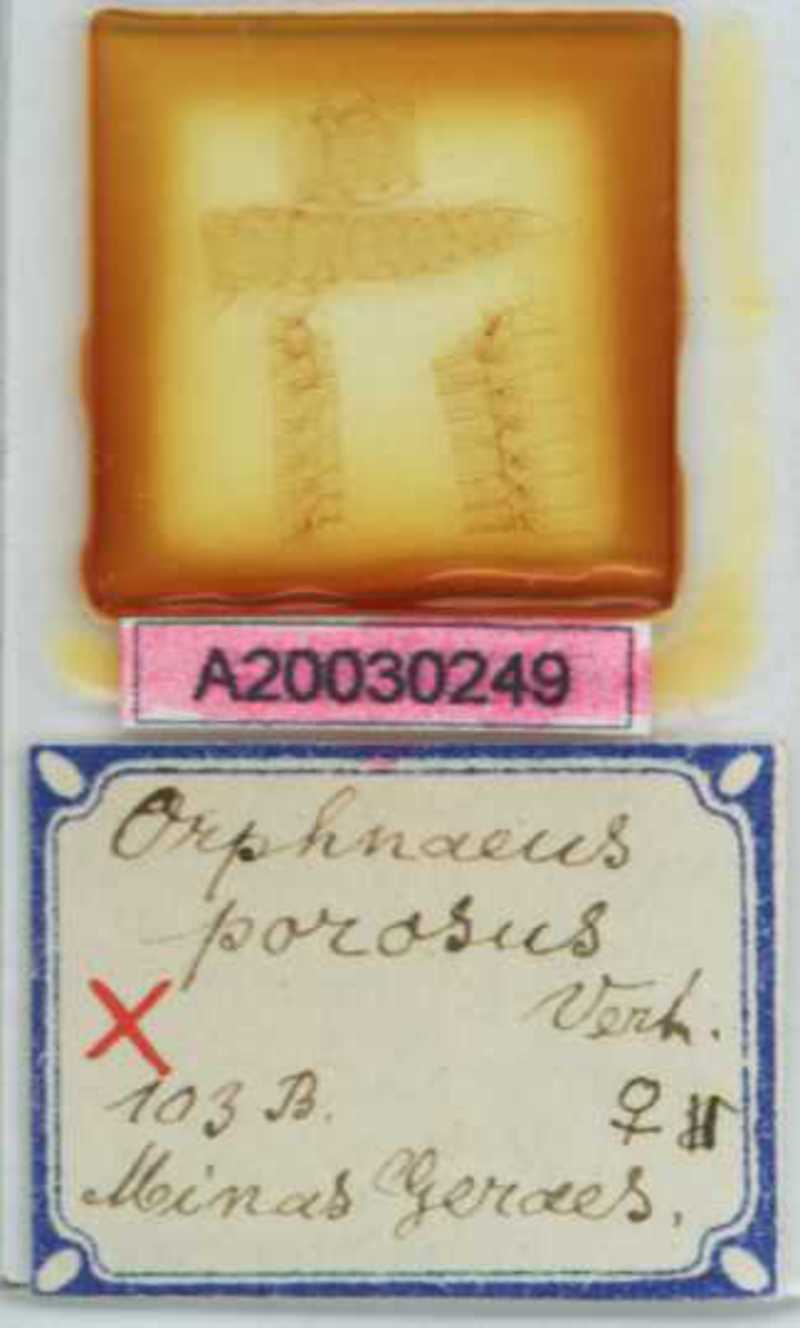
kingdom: Animalia
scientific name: Animalia
